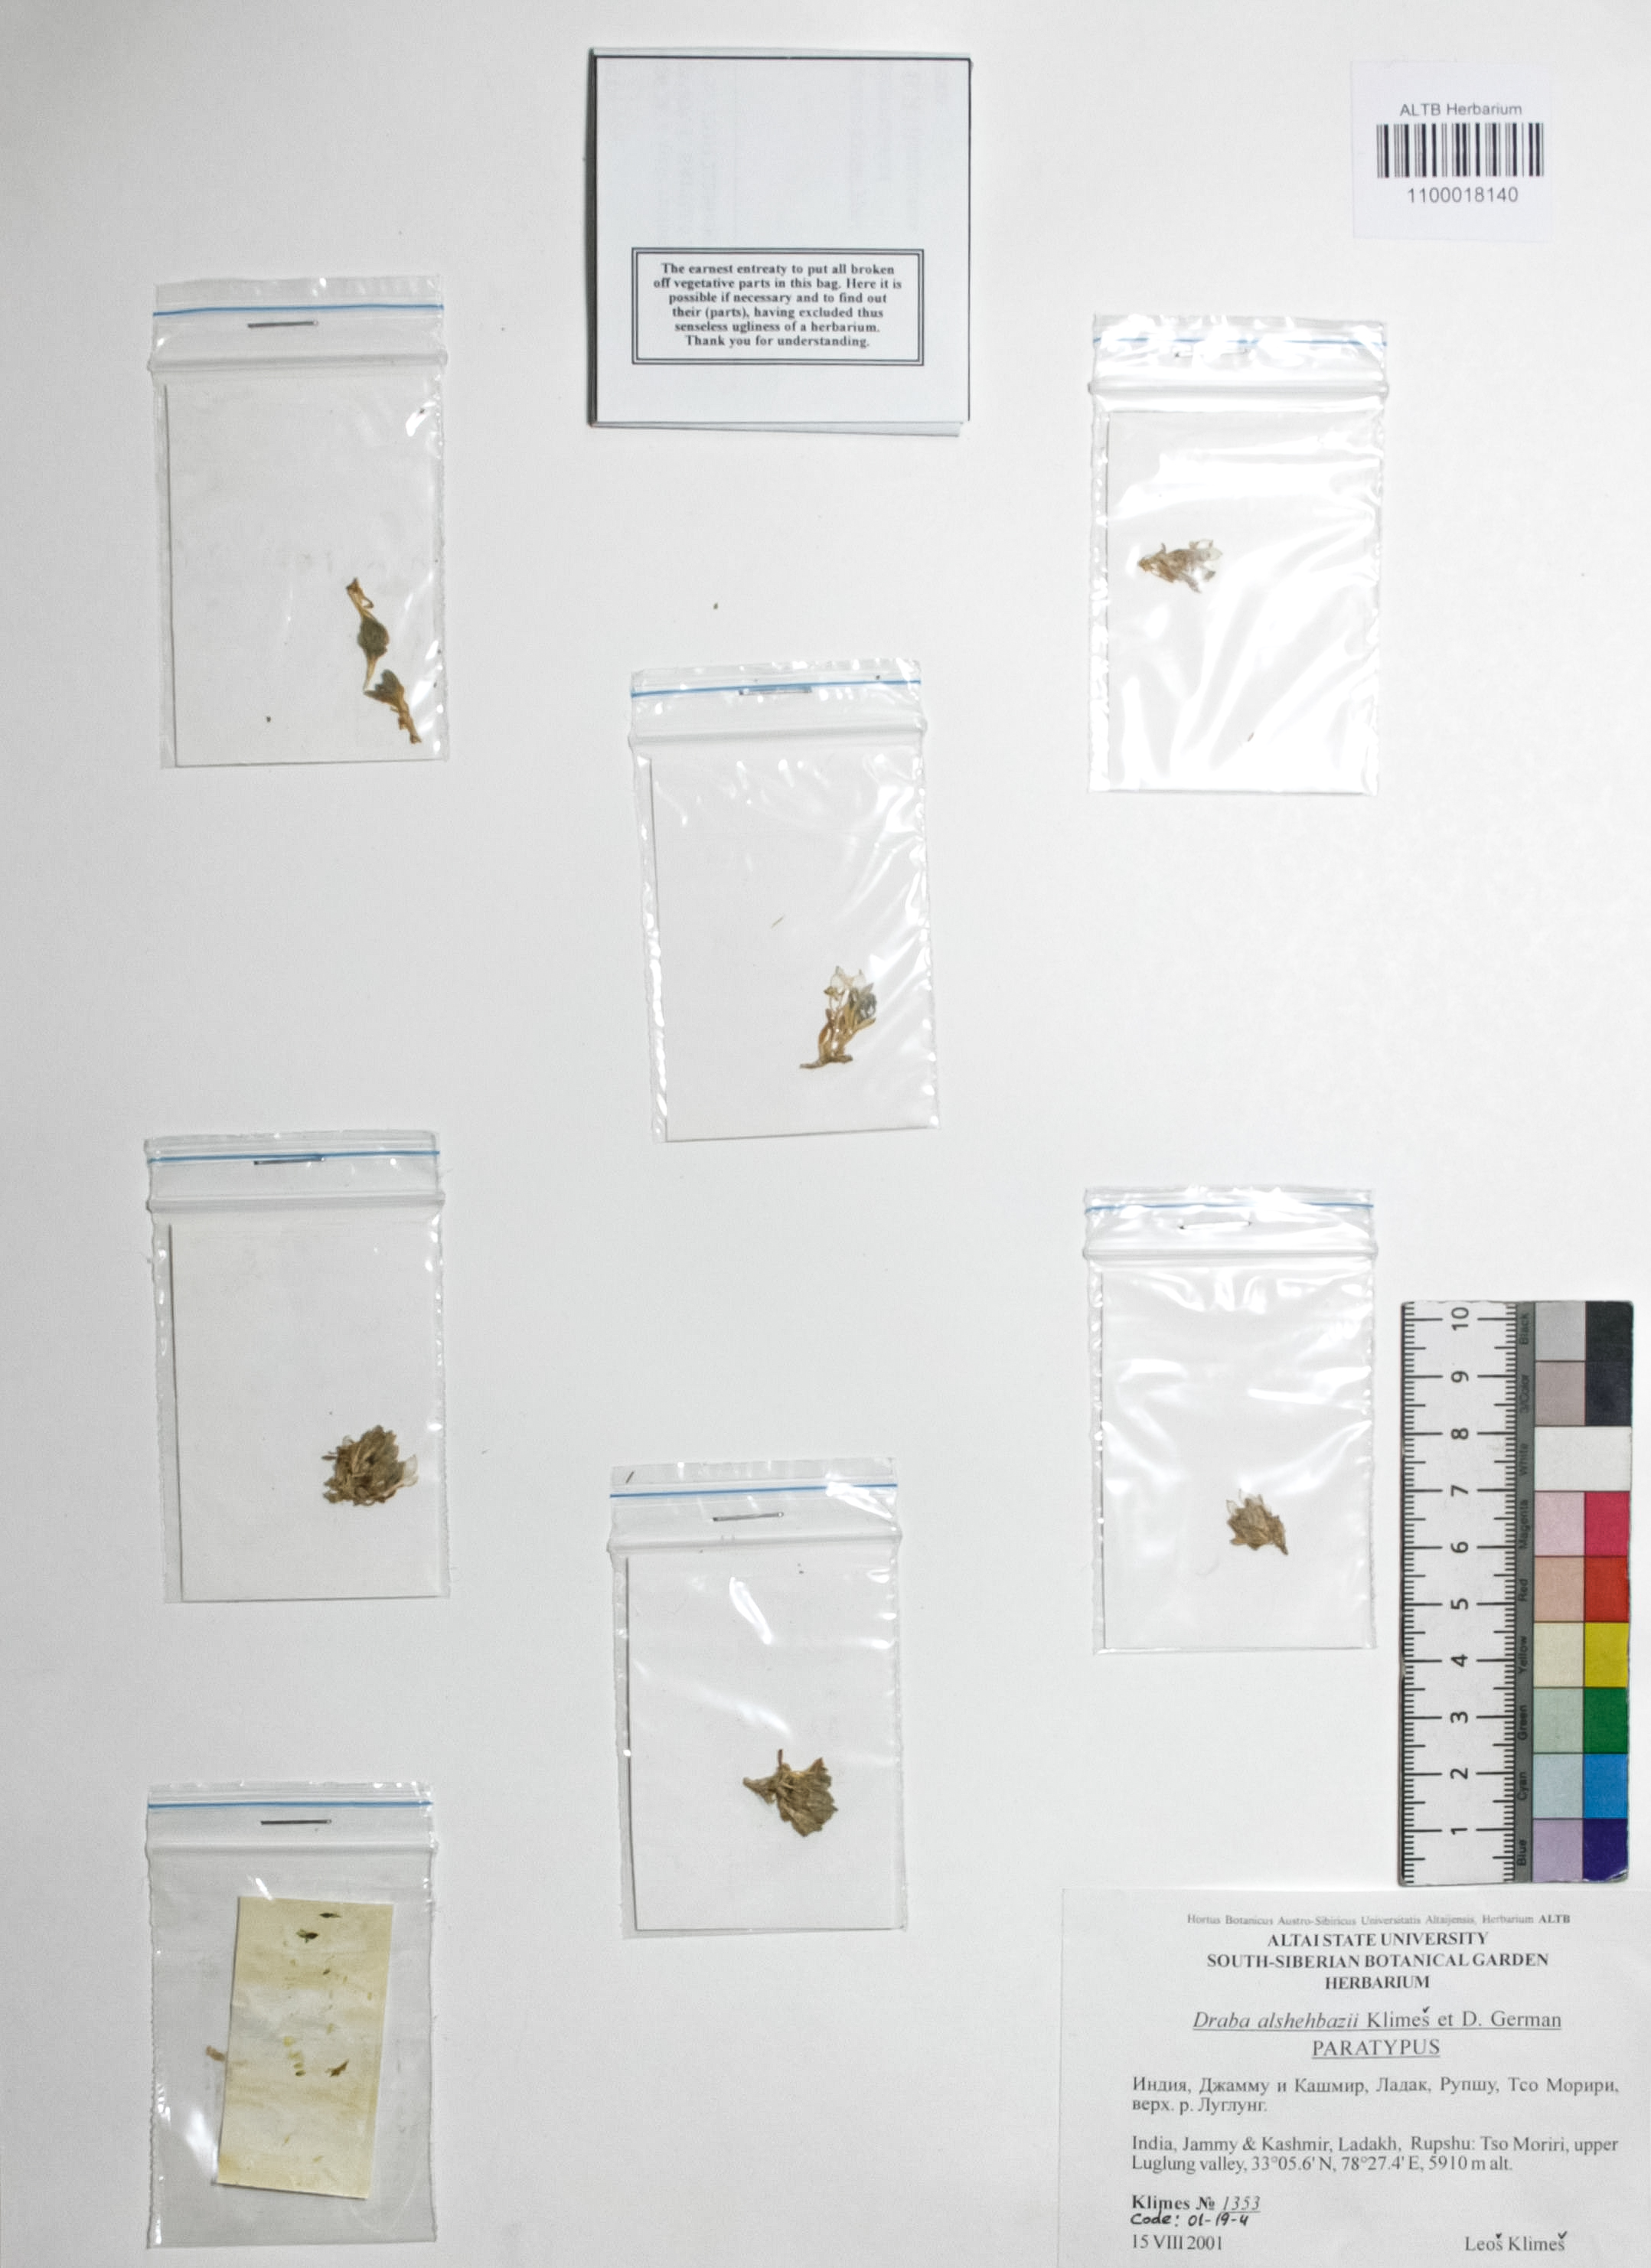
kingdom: Plantae
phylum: Tracheophyta
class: Magnoliopsida
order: Brassicales
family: Brassicaceae
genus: Draba
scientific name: Draba alshehbazii
